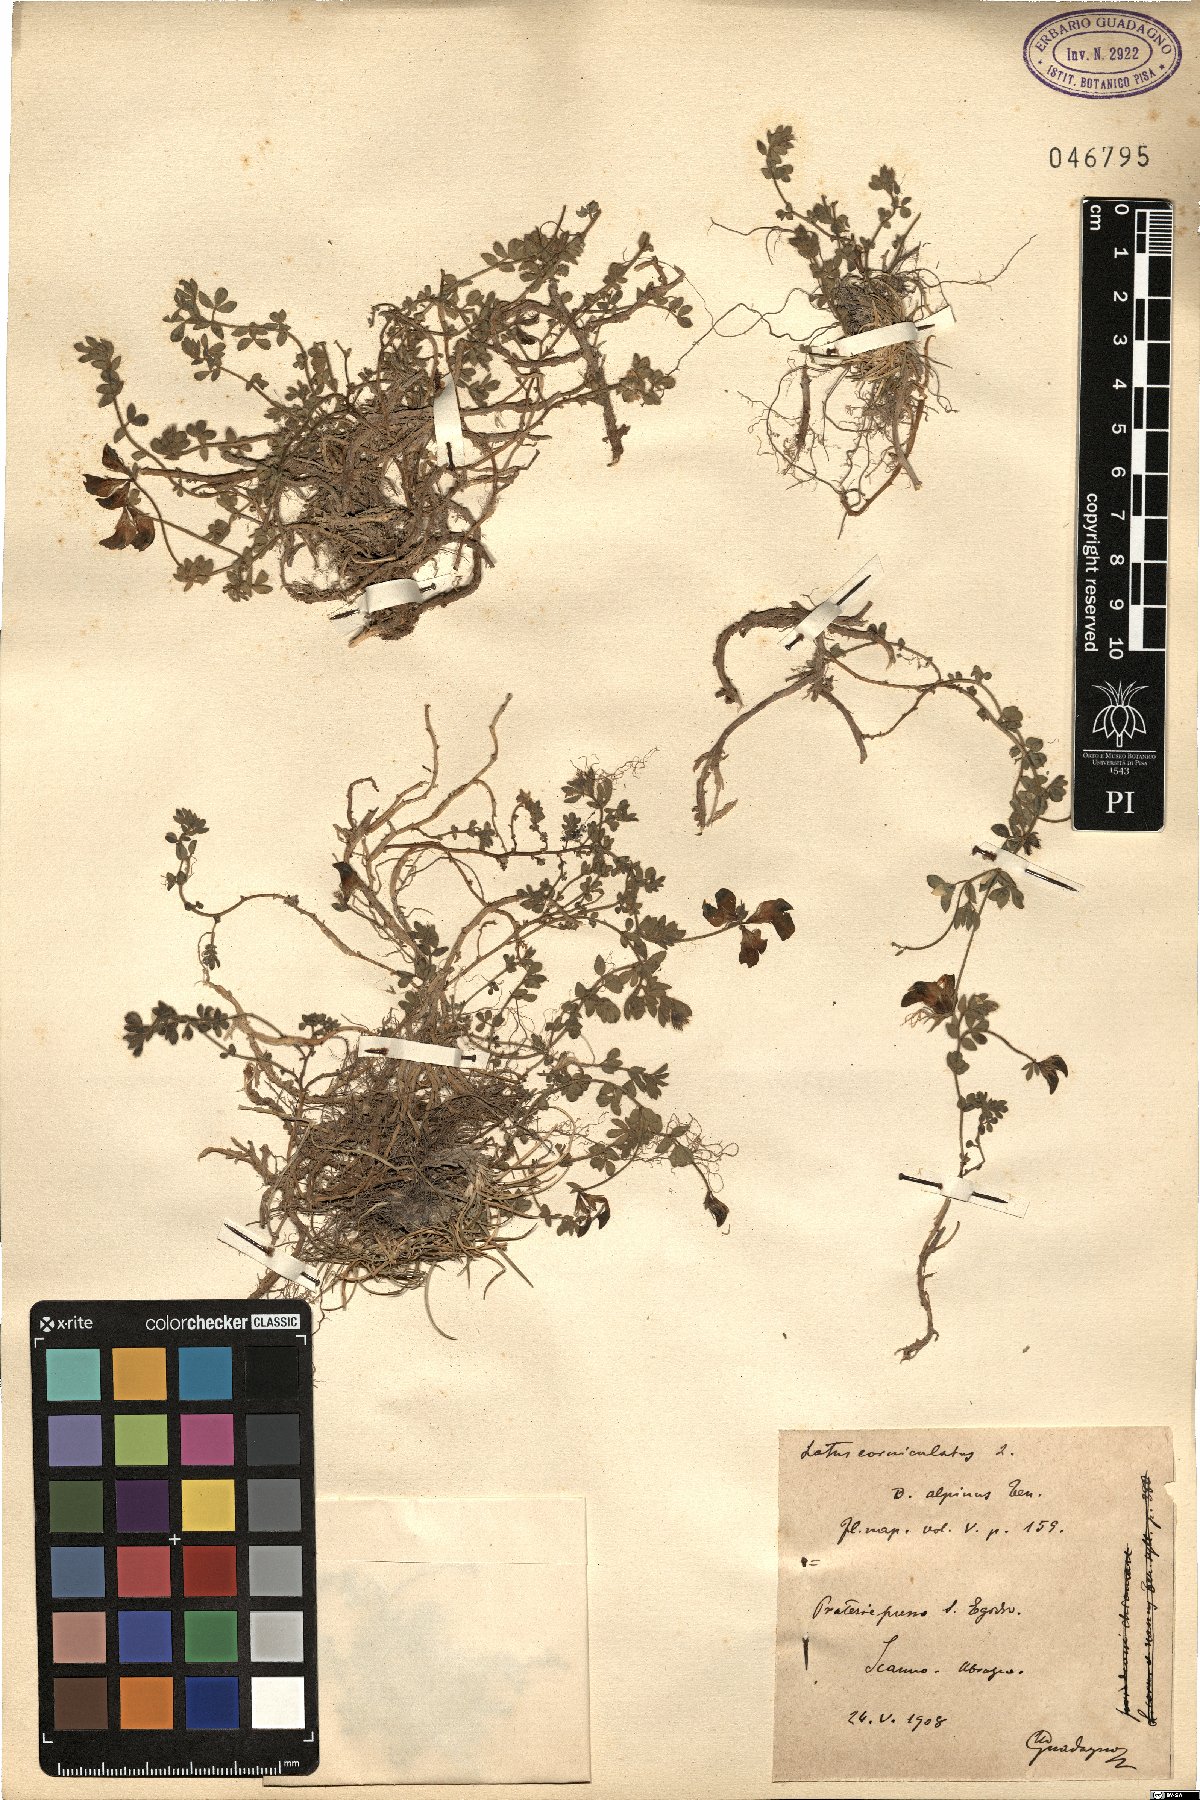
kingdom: Plantae
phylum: Tracheophyta
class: Magnoliopsida
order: Fabales
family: Fabaceae
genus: Lotus
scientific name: Lotus alpinus
